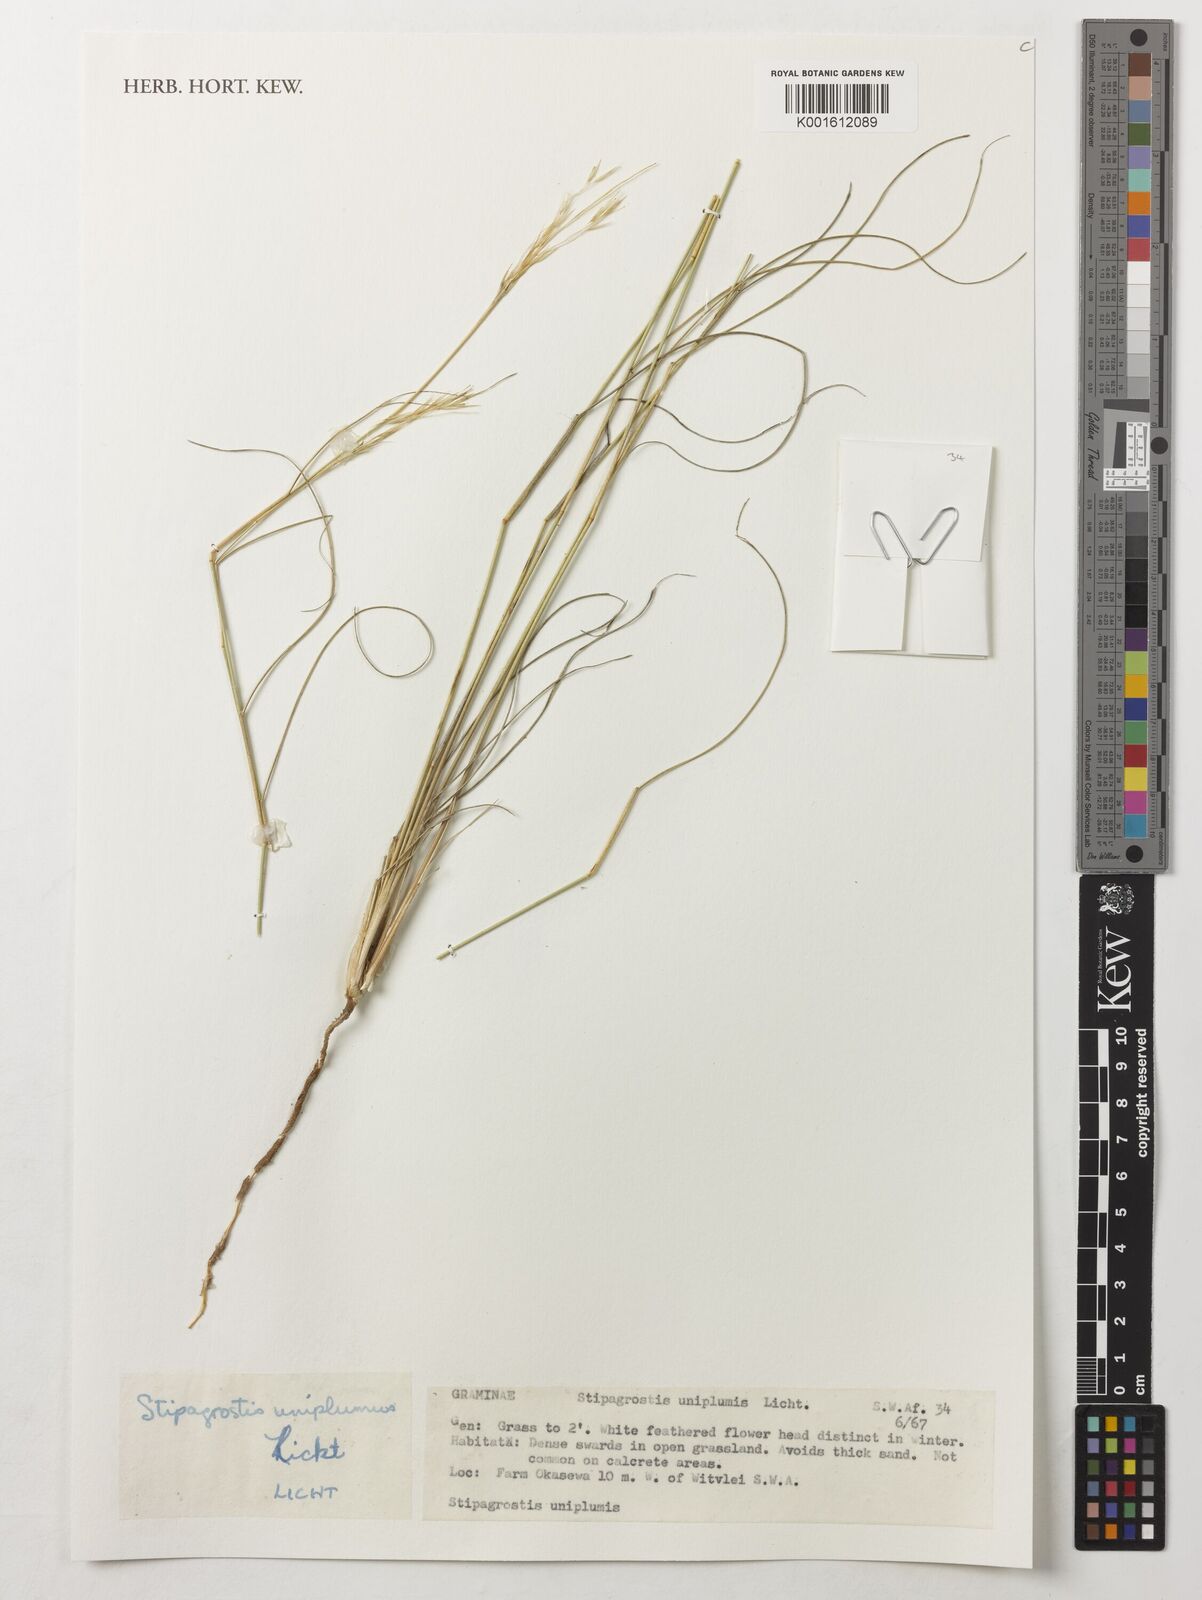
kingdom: Plantae
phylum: Tracheophyta
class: Liliopsida
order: Poales
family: Poaceae
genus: Stipagrostis
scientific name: Stipagrostis uniplumis
